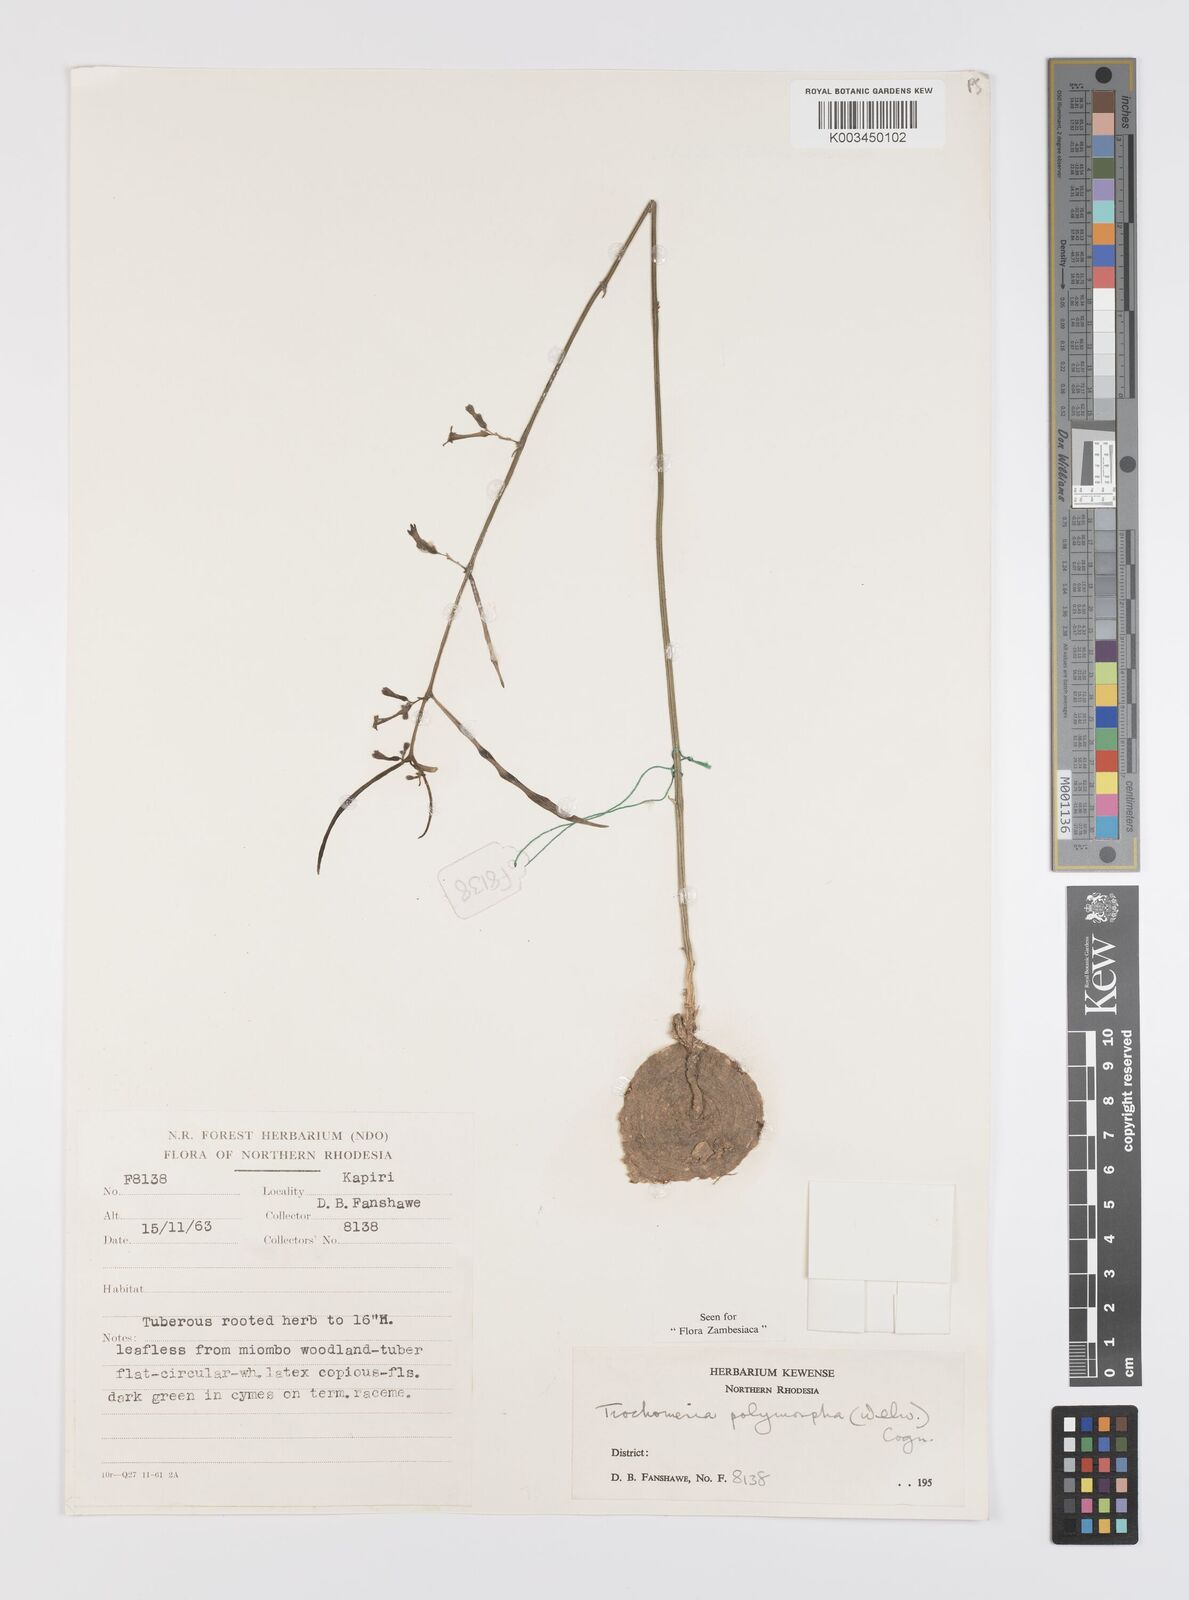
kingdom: Plantae
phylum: Tracheophyta
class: Magnoliopsida
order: Cucurbitales
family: Cucurbitaceae
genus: Trochomeria
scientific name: Trochomeria polymorpha
